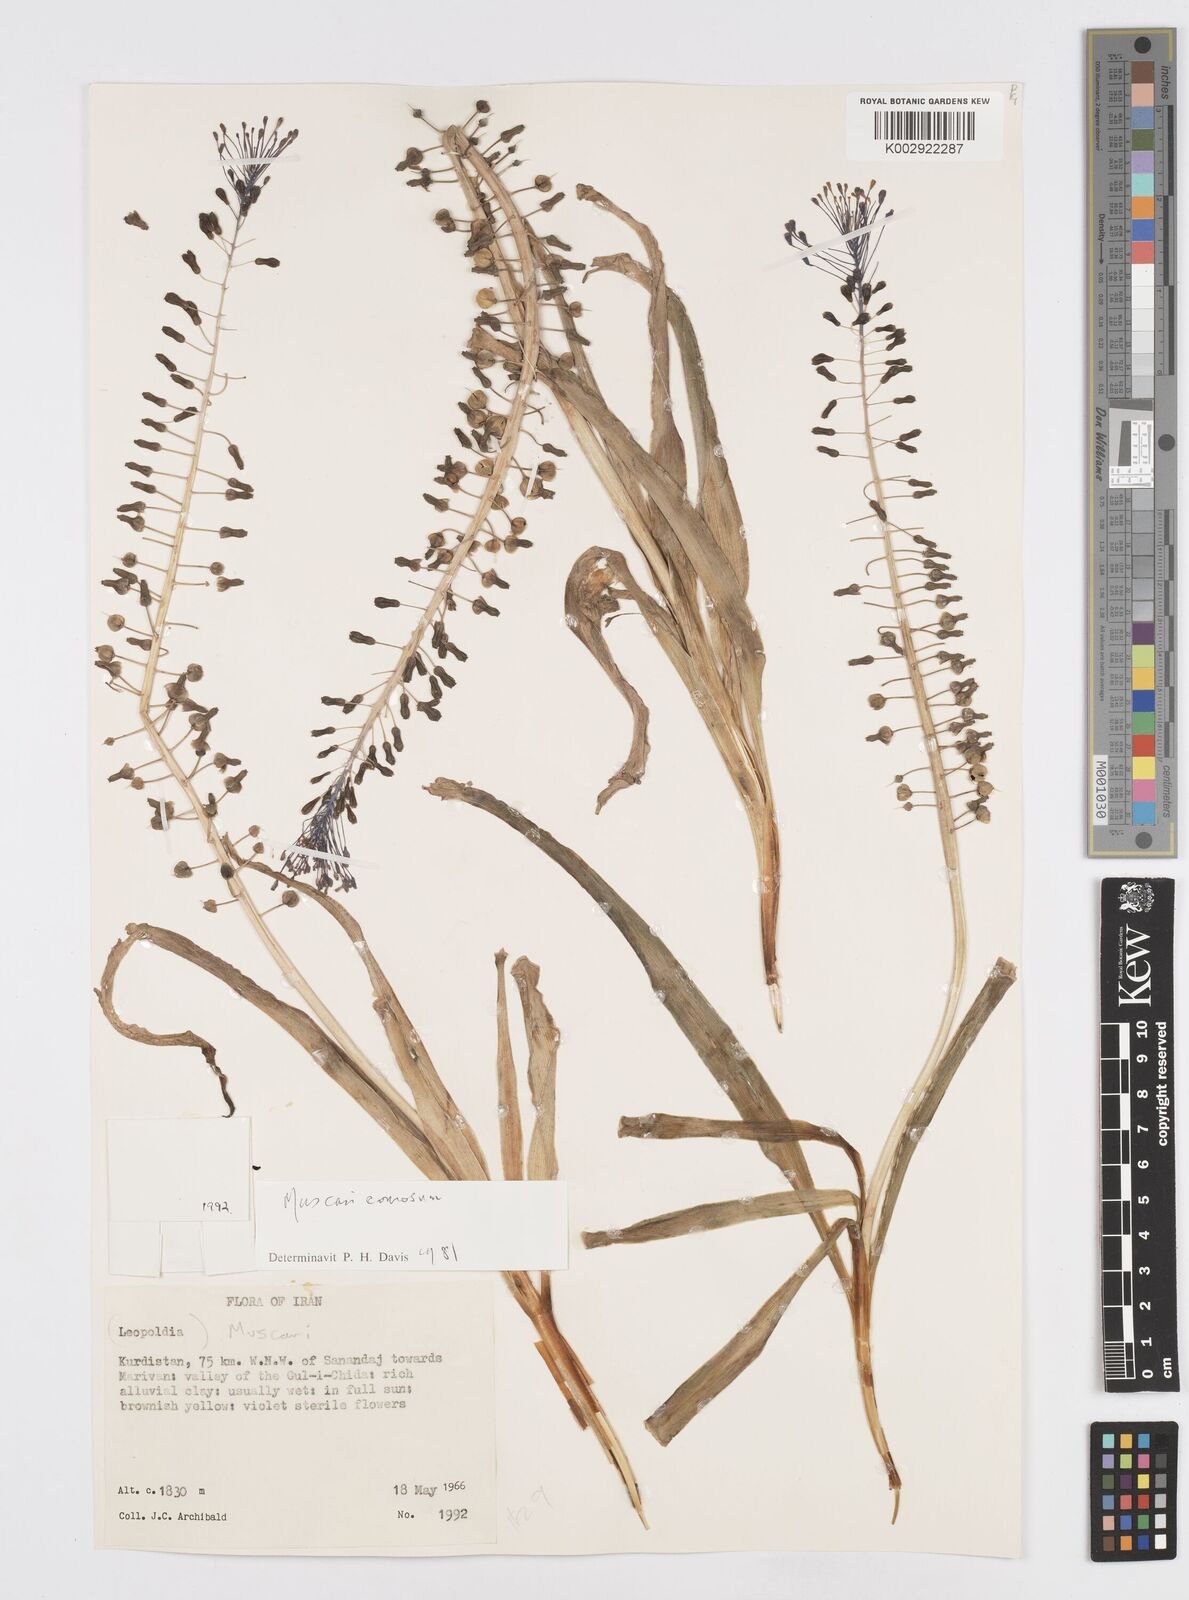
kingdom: Plantae
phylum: Tracheophyta
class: Liliopsida
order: Asparagales
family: Asparagaceae
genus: Muscari
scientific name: Muscari comosum
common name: Tassel hyacinth
